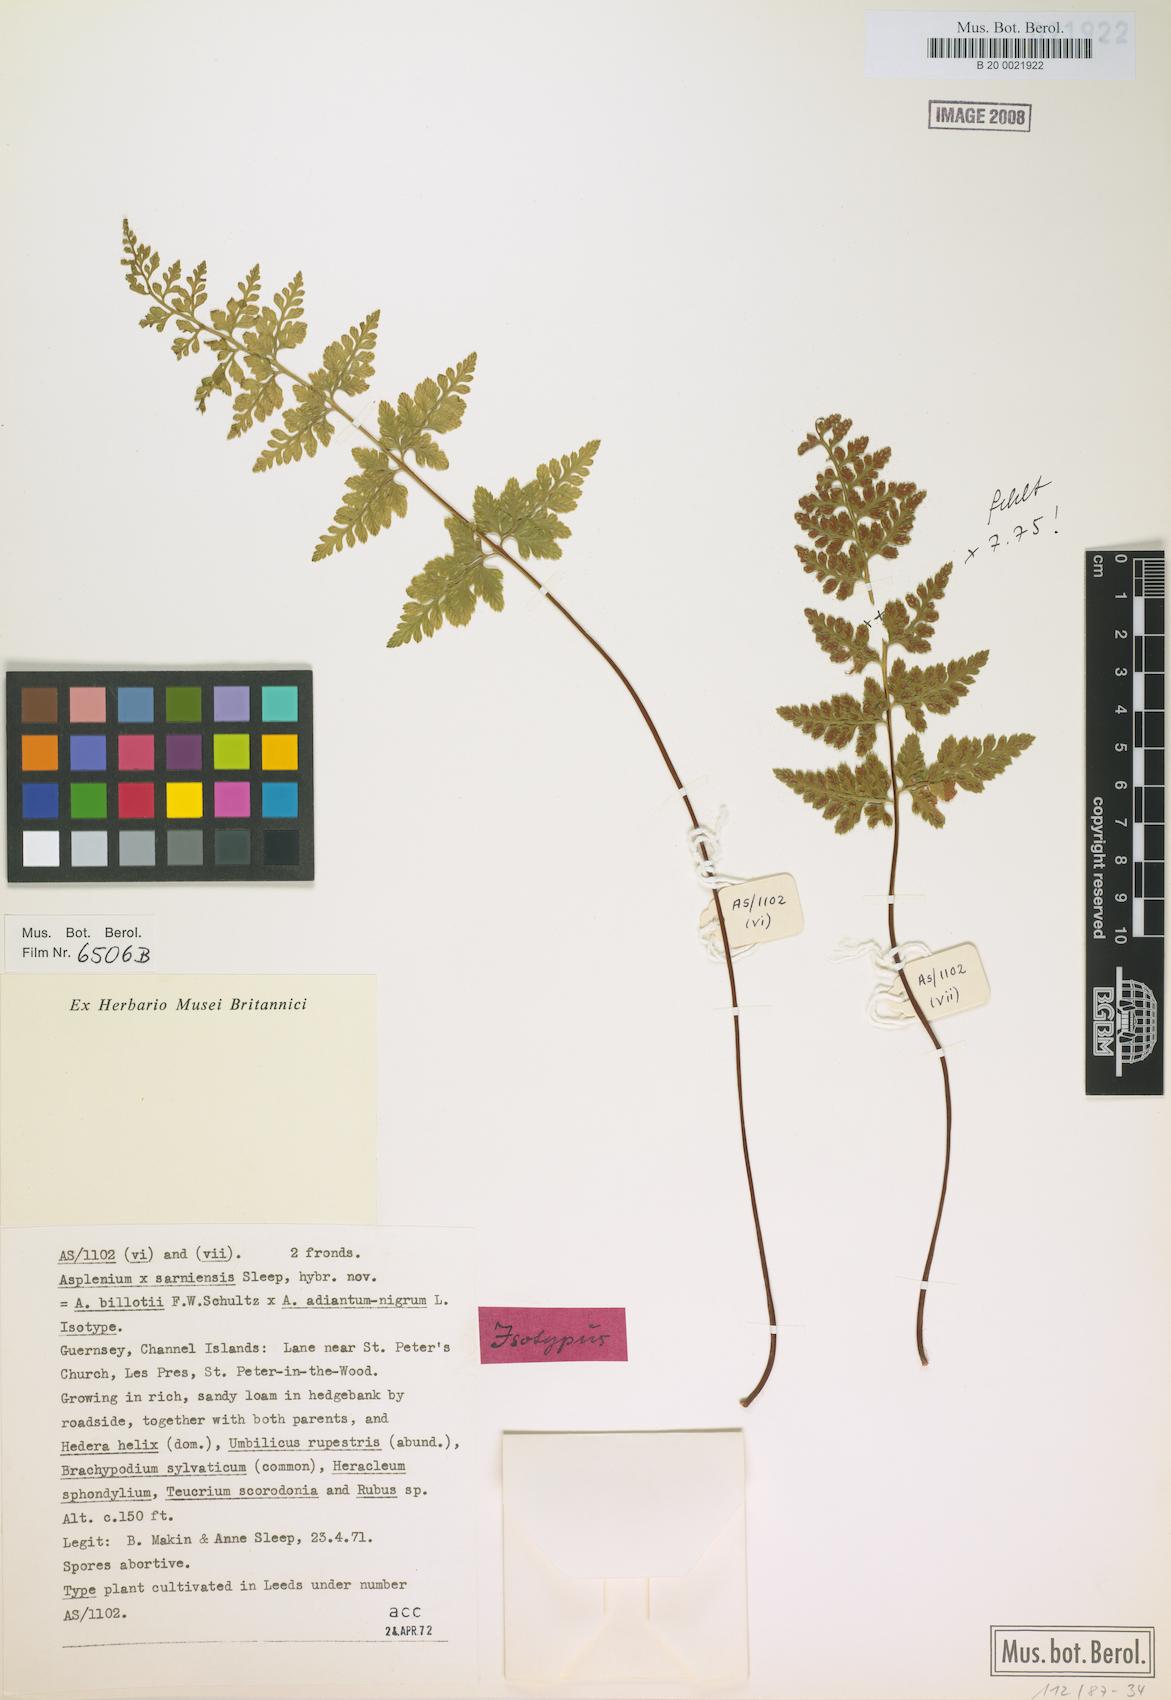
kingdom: Plantae
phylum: Tracheophyta
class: Polypodiopsida
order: Polypodiales
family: Aspleniaceae
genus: Asplenium
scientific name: Asplenium sarniense
